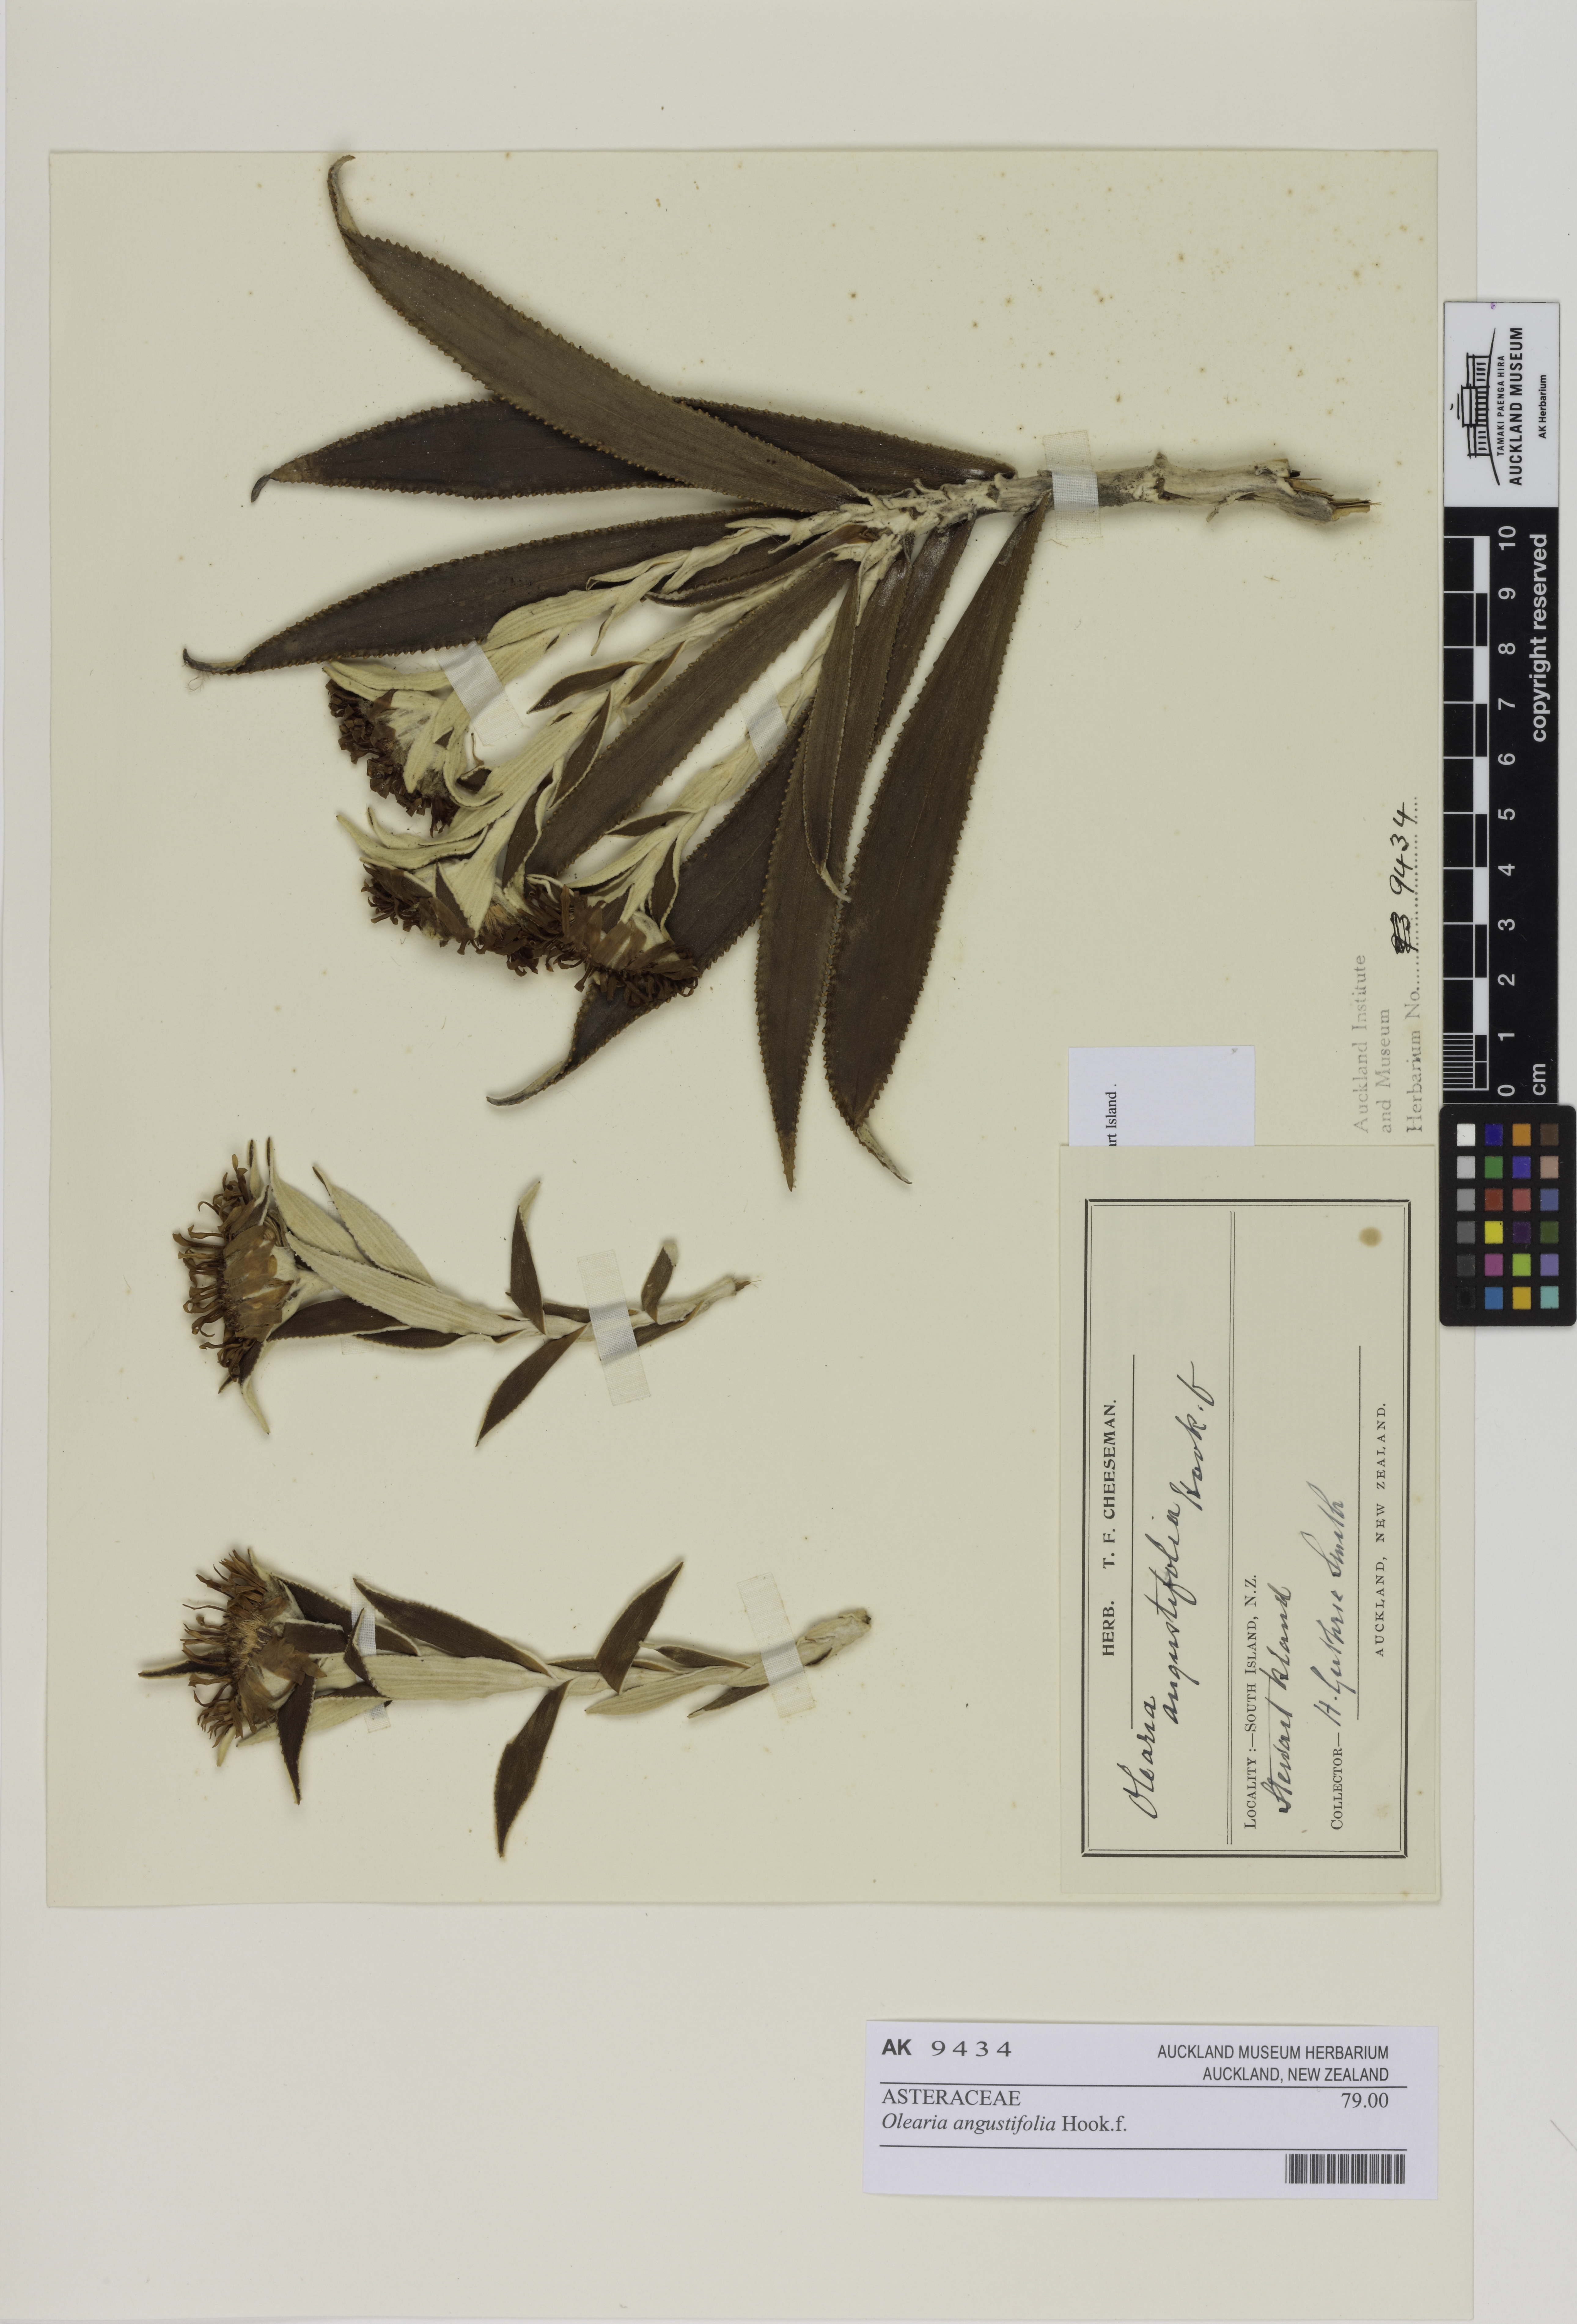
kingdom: Plantae
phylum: Tracheophyta
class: Magnoliopsida
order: Asterales
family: Asteraceae
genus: Macrolearia
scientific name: Macrolearia angustifolia
